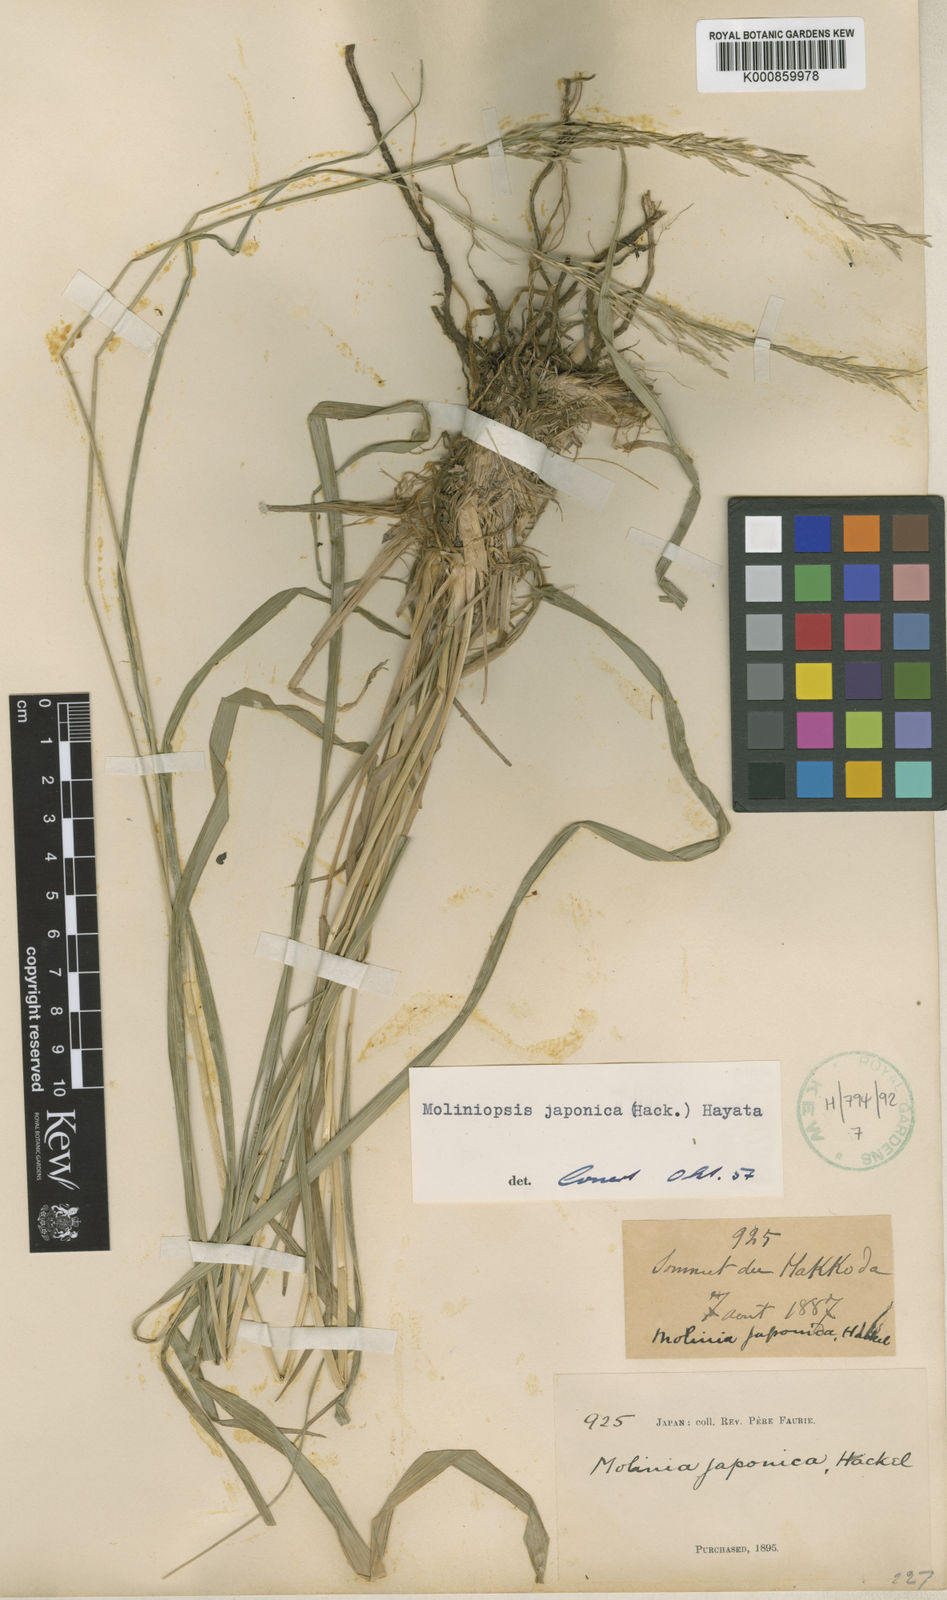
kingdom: Plantae
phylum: Tracheophyta
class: Liliopsida
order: Poales
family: Poaceae
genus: Moliniopsis
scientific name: Moliniopsis japonica
